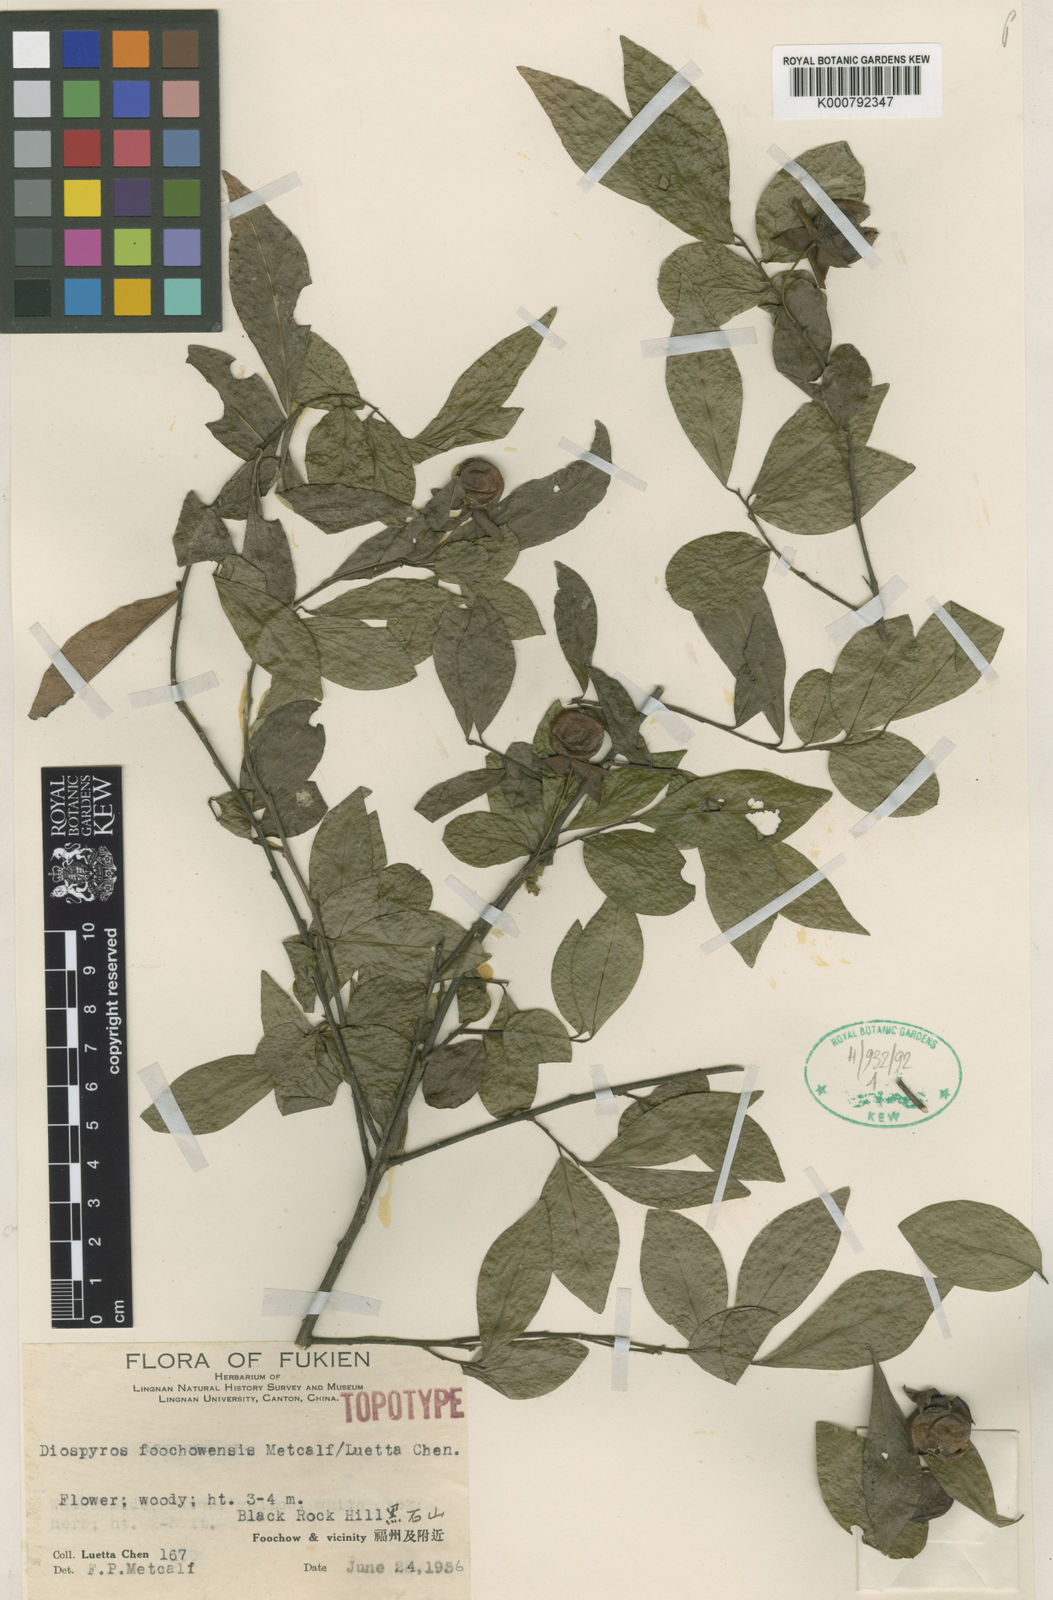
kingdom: Plantae
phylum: Tracheophyta
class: Magnoliopsida
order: Ericales
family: Ebenaceae
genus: Diospyros
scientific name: Diospyros cathayensis
